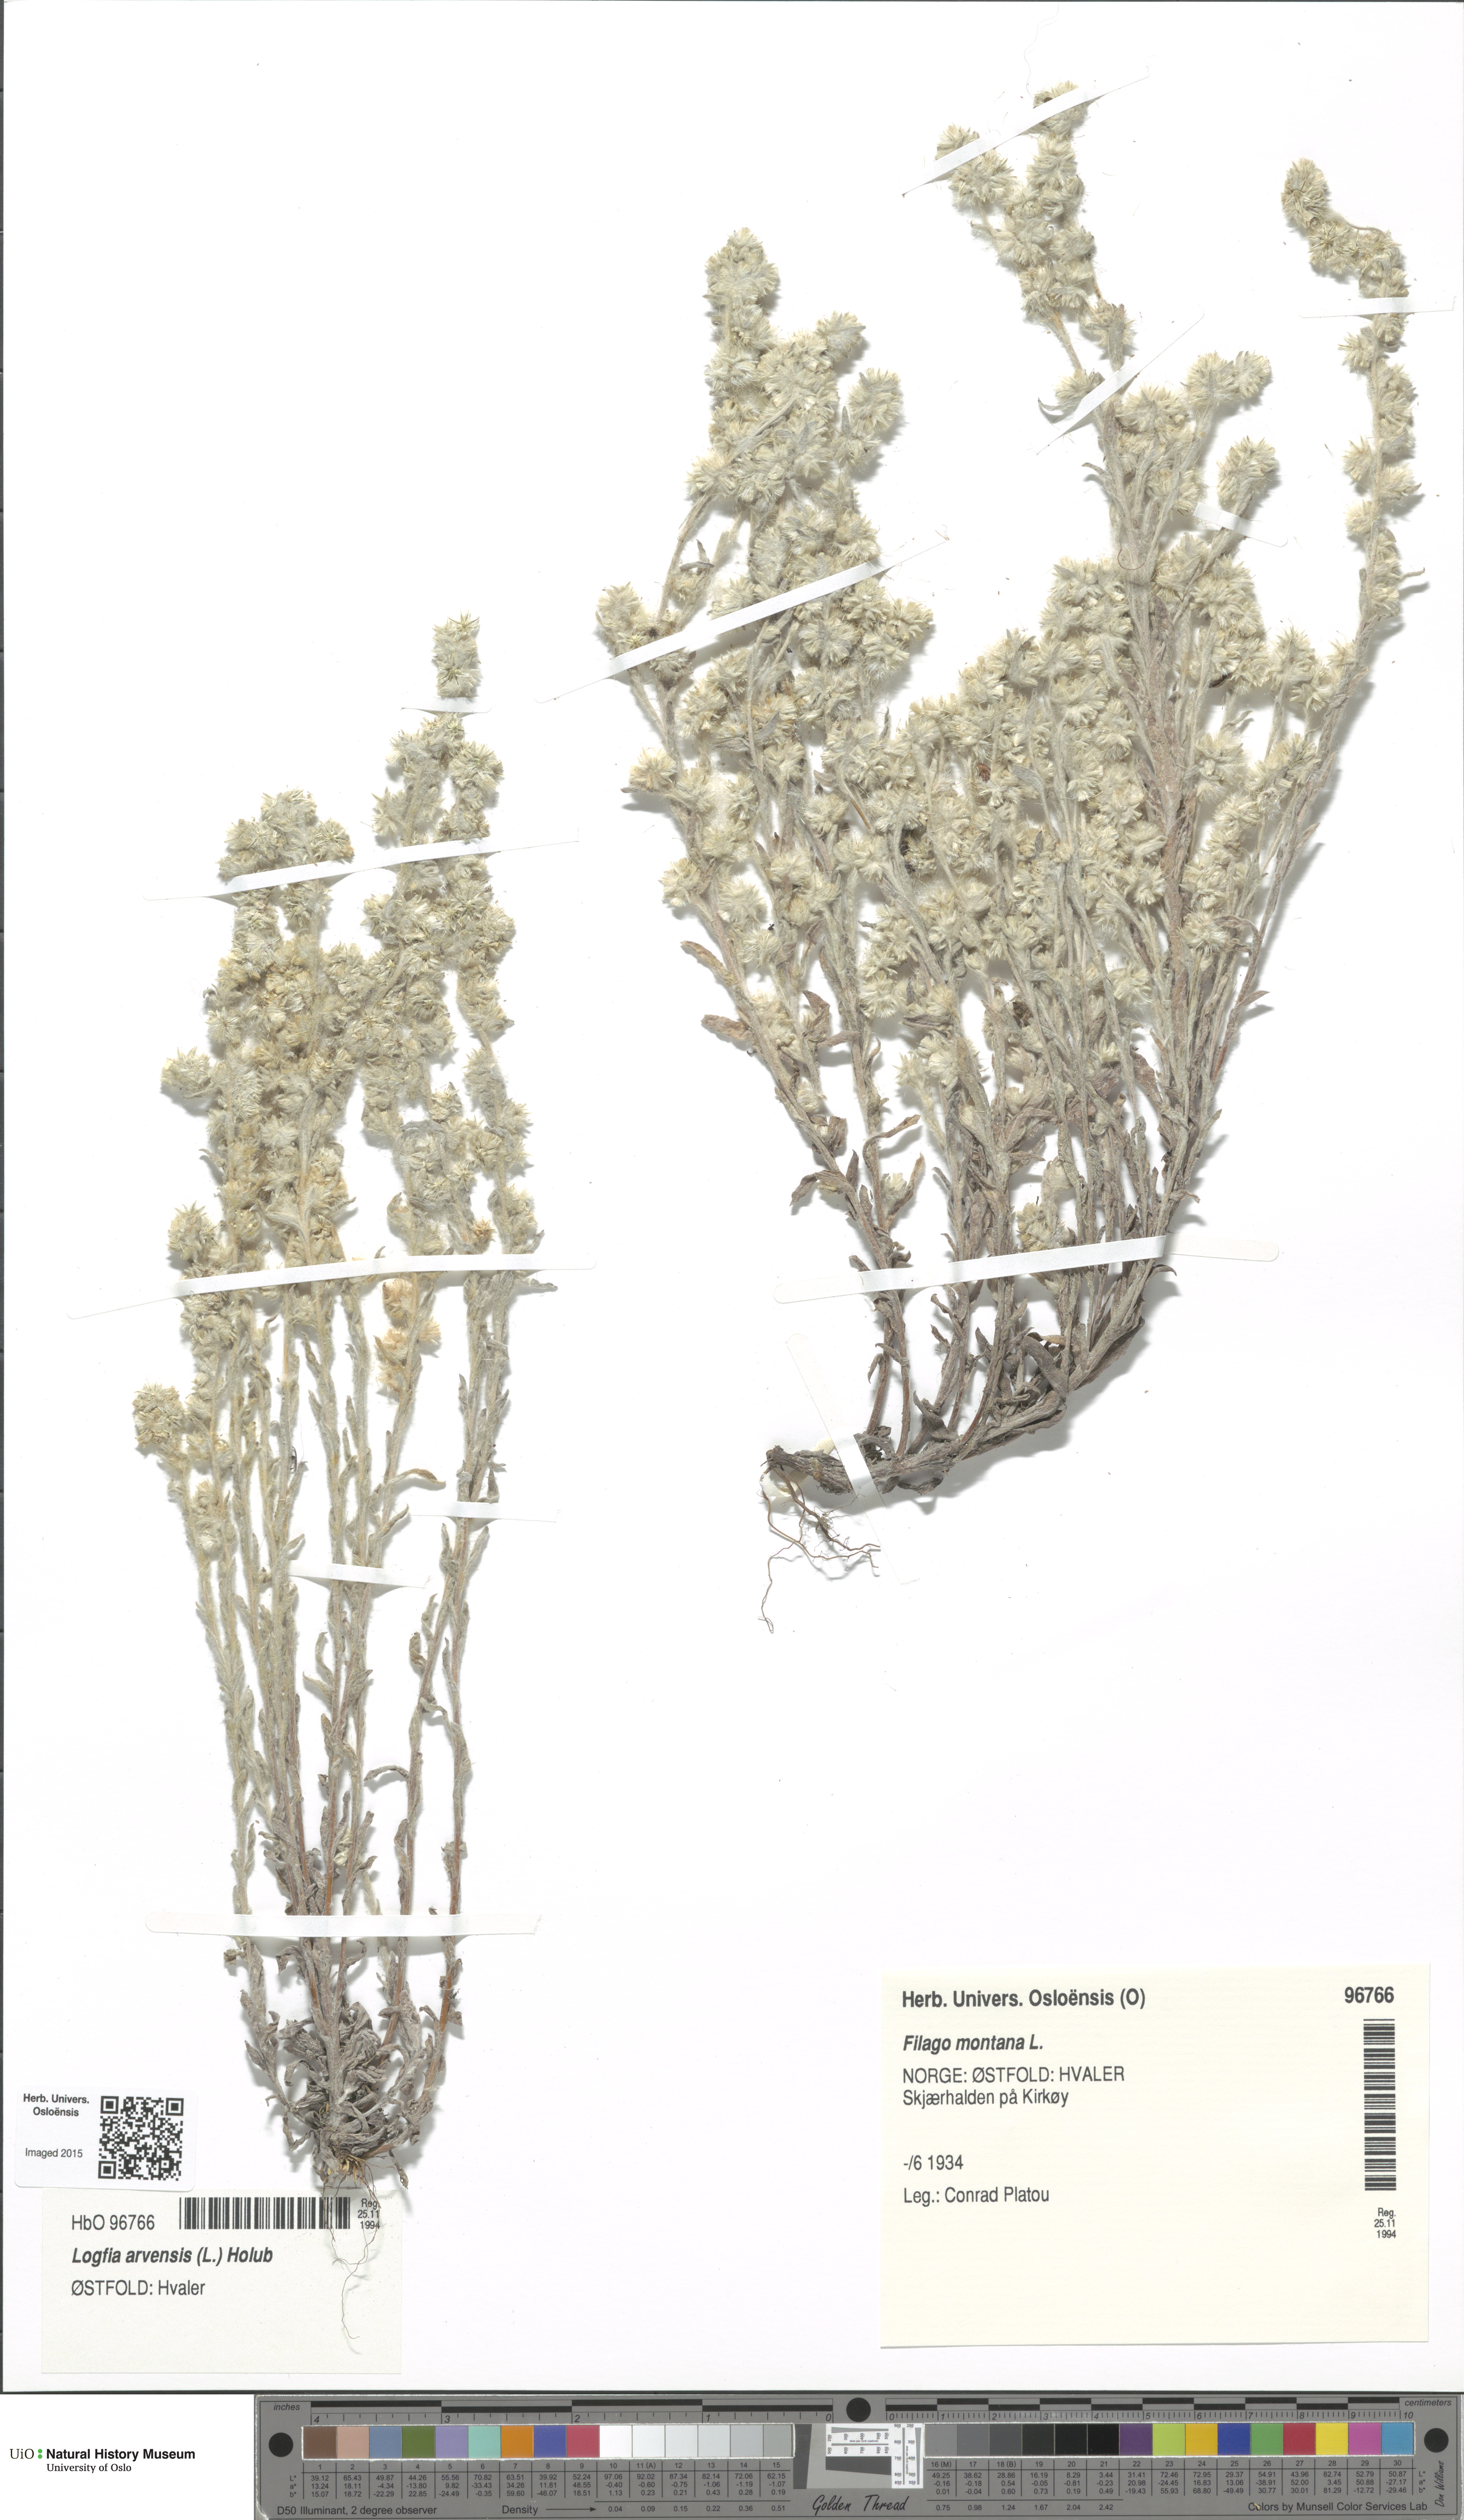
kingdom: Plantae
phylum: Tracheophyta
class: Magnoliopsida
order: Asterales
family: Asteraceae
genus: Filago
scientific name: Filago arvensis
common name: Field cudweed
